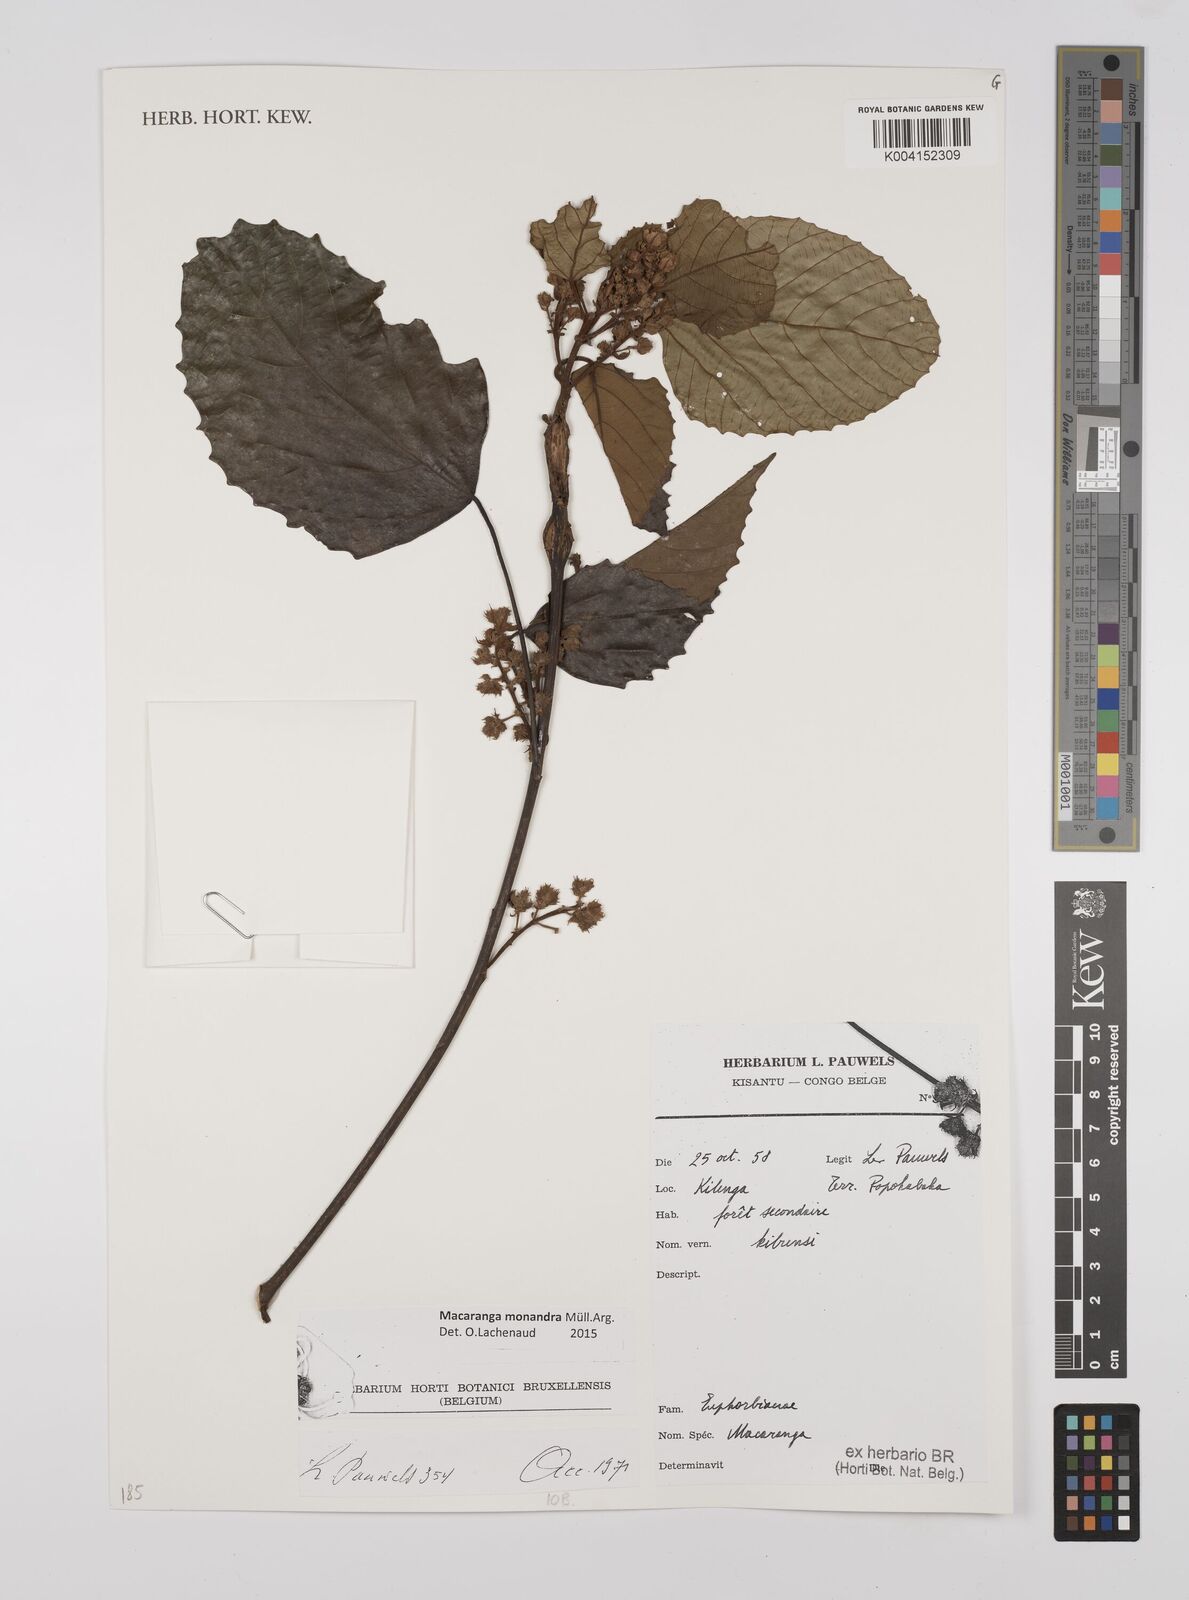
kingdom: Plantae
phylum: Tracheophyta
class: Magnoliopsida
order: Malpighiales
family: Euphorbiaceae
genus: Macaranga
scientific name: Macaranga monandra
